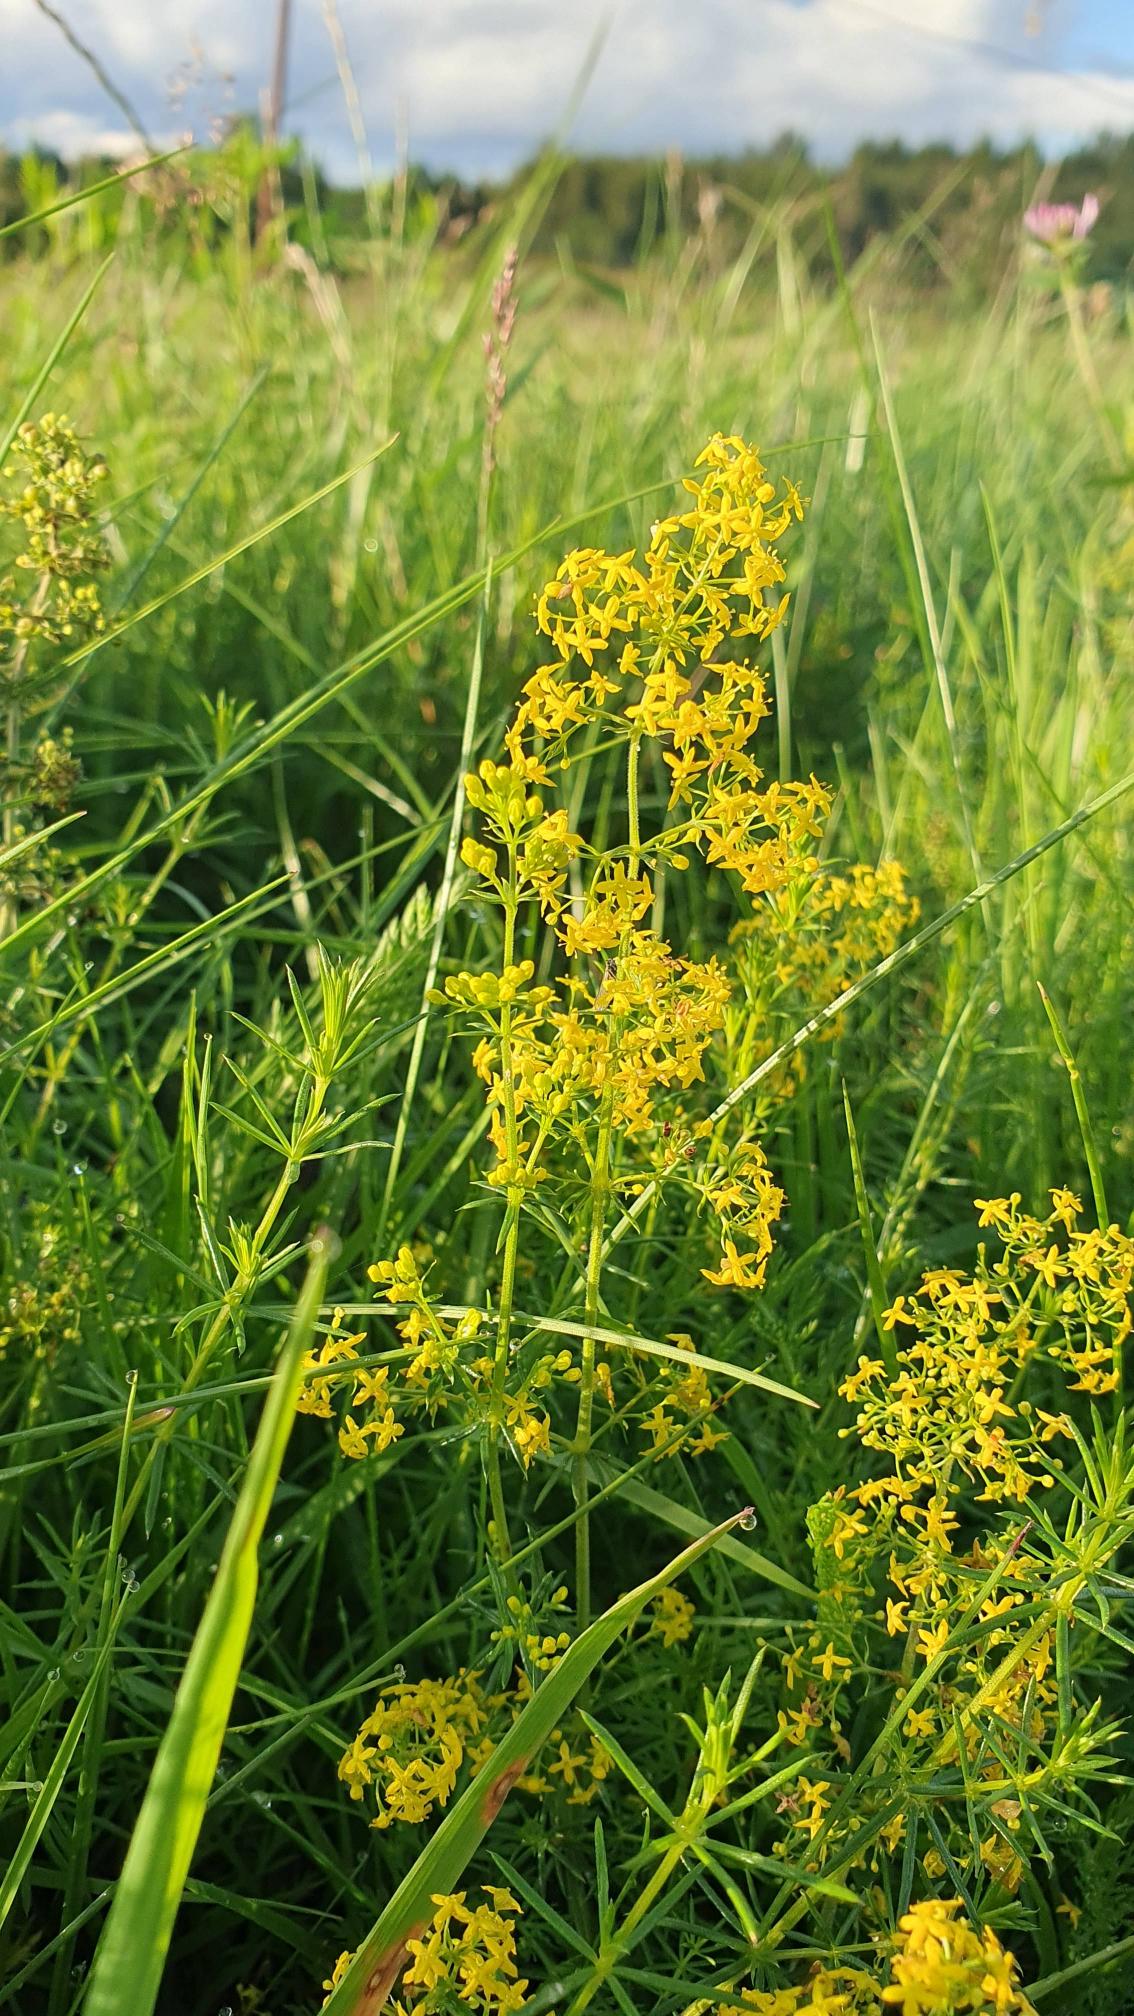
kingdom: Plantae
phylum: Tracheophyta
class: Magnoliopsida
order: Gentianales
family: Rubiaceae
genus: Galium
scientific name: Galium verum
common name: Gul snerre
